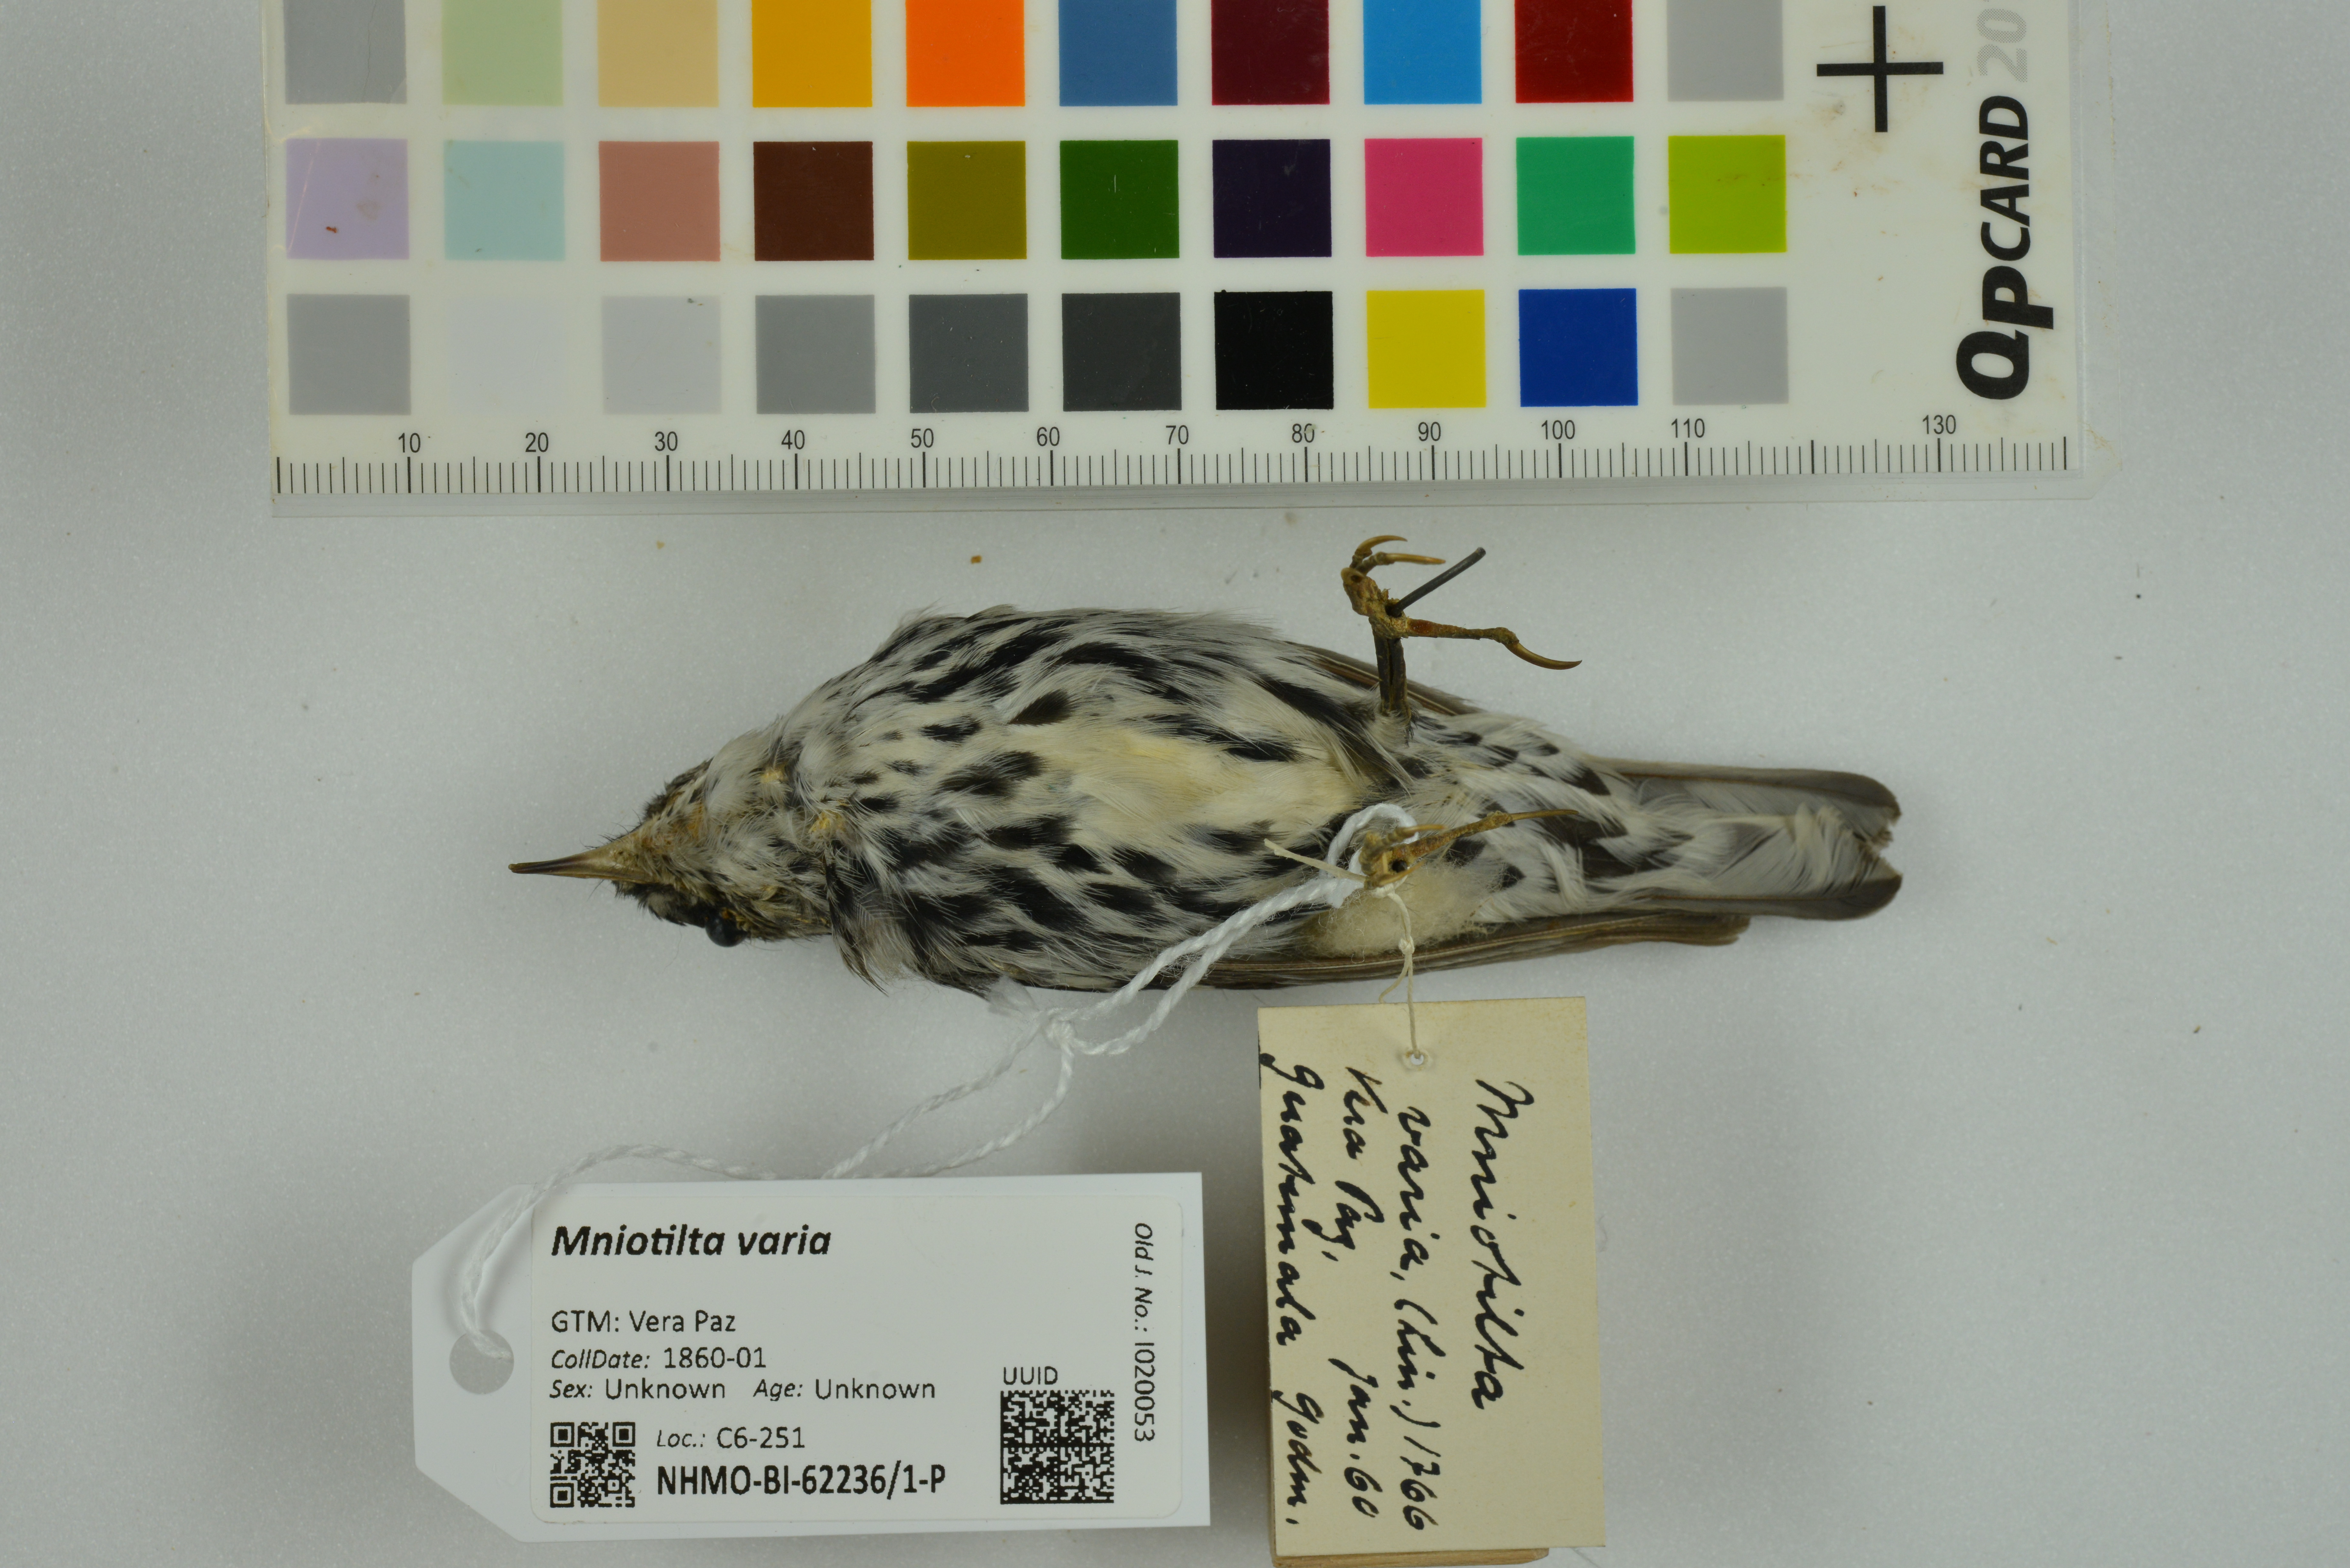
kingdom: Animalia
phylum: Chordata
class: Aves
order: Passeriformes
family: Parulidae
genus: Mniotilta
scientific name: Mniotilta varia
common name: Black-and-white warbler
